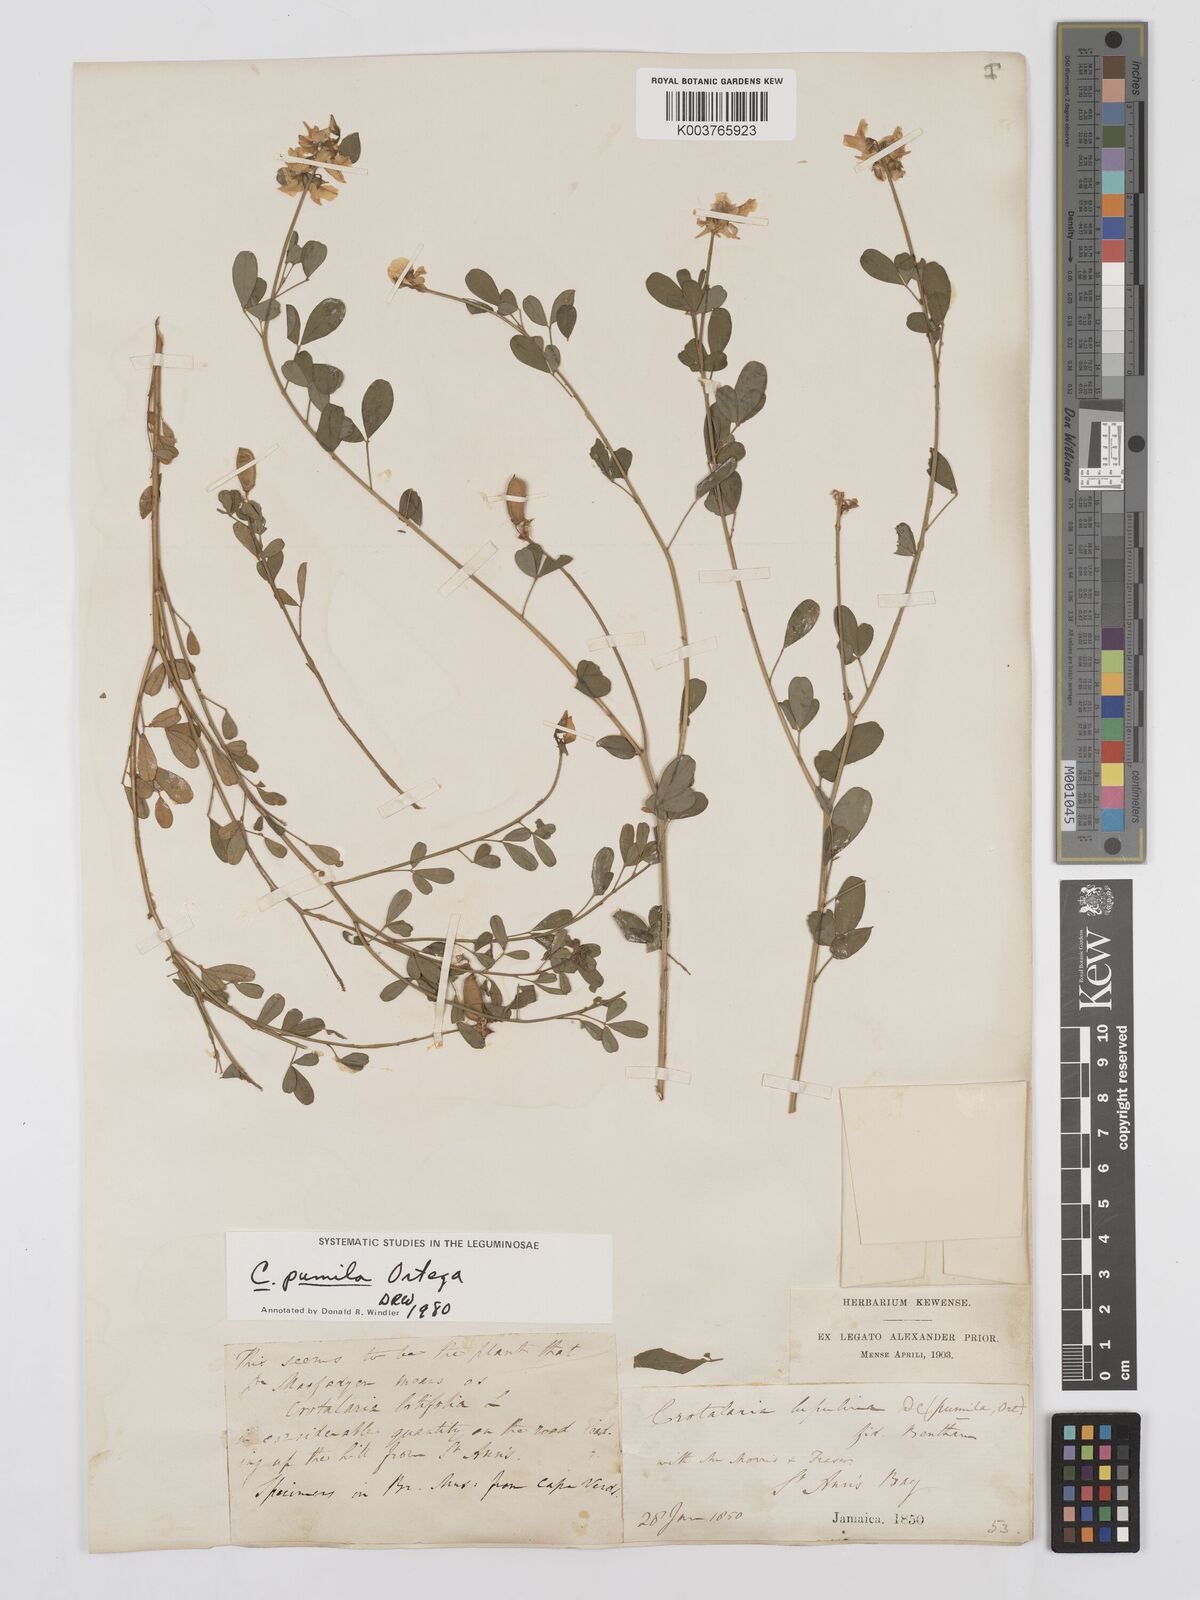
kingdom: Plantae
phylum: Tracheophyta
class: Magnoliopsida
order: Fabales
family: Fabaceae
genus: Crotalaria
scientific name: Crotalaria pumila
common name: Low rattlebox
